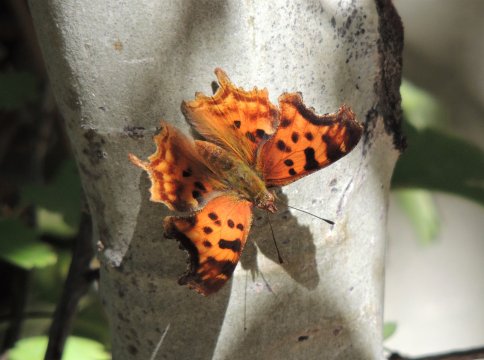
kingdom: Animalia
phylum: Arthropoda
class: Insecta
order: Lepidoptera
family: Nymphalidae
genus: Polygonia
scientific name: Polygonia satyrus
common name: Satyr Comma
